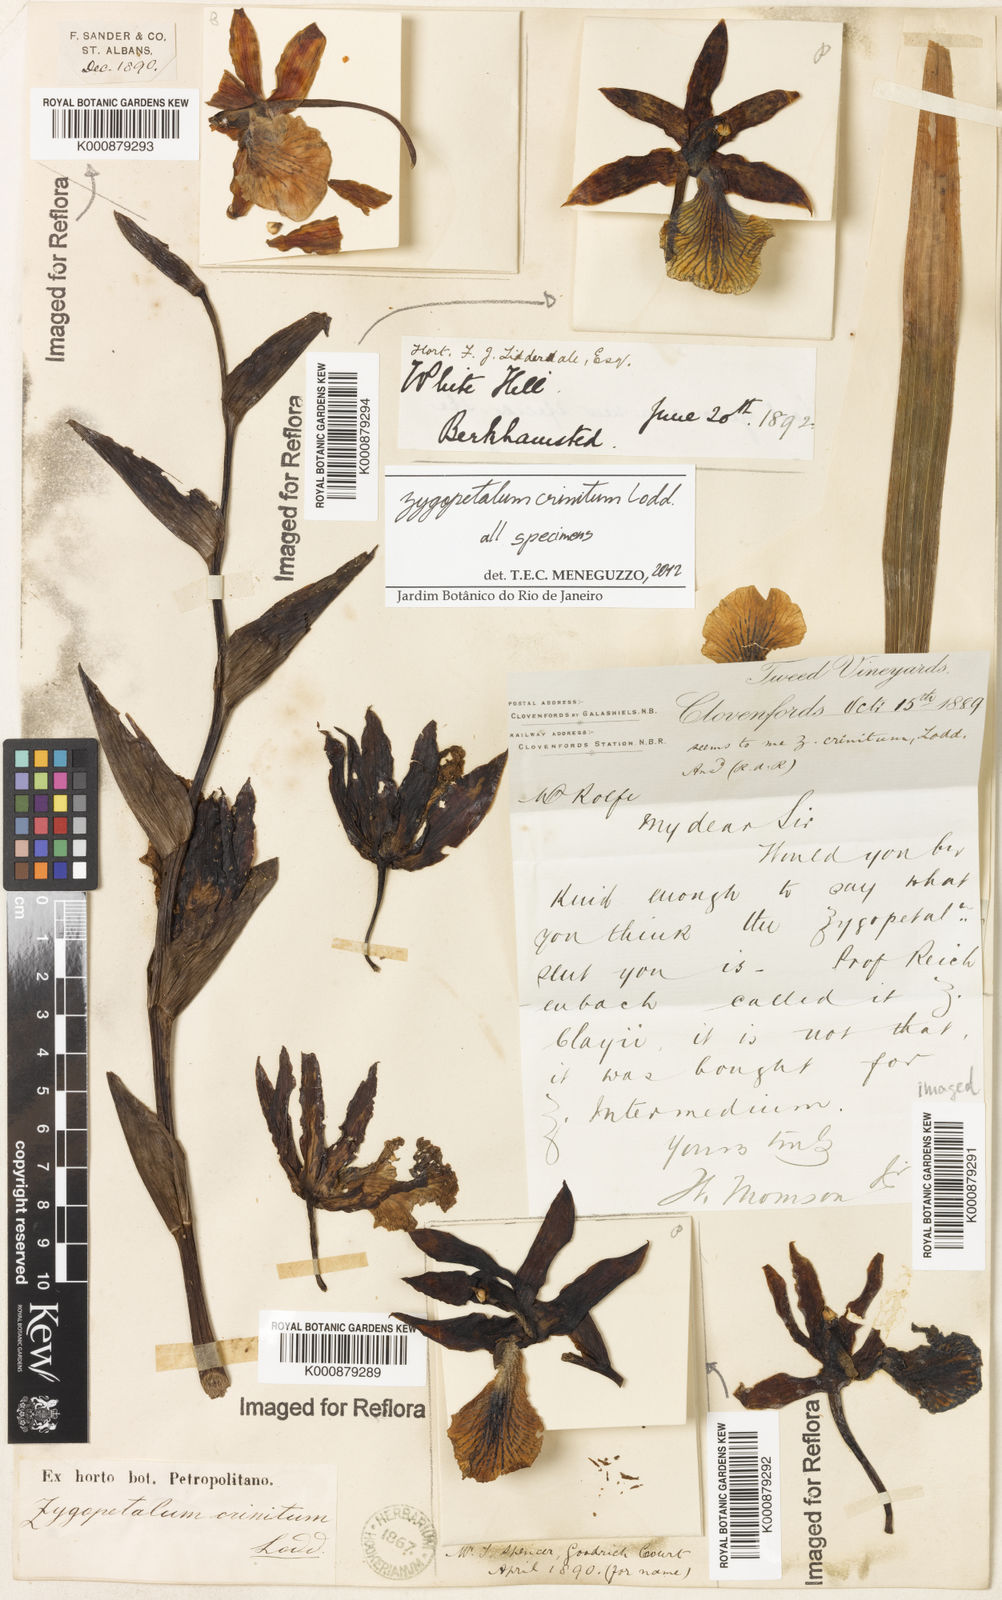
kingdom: Plantae
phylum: Tracheophyta
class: Liliopsida
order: Asparagales
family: Orchidaceae
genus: Zygopetalum
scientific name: Zygopetalum crinitum
